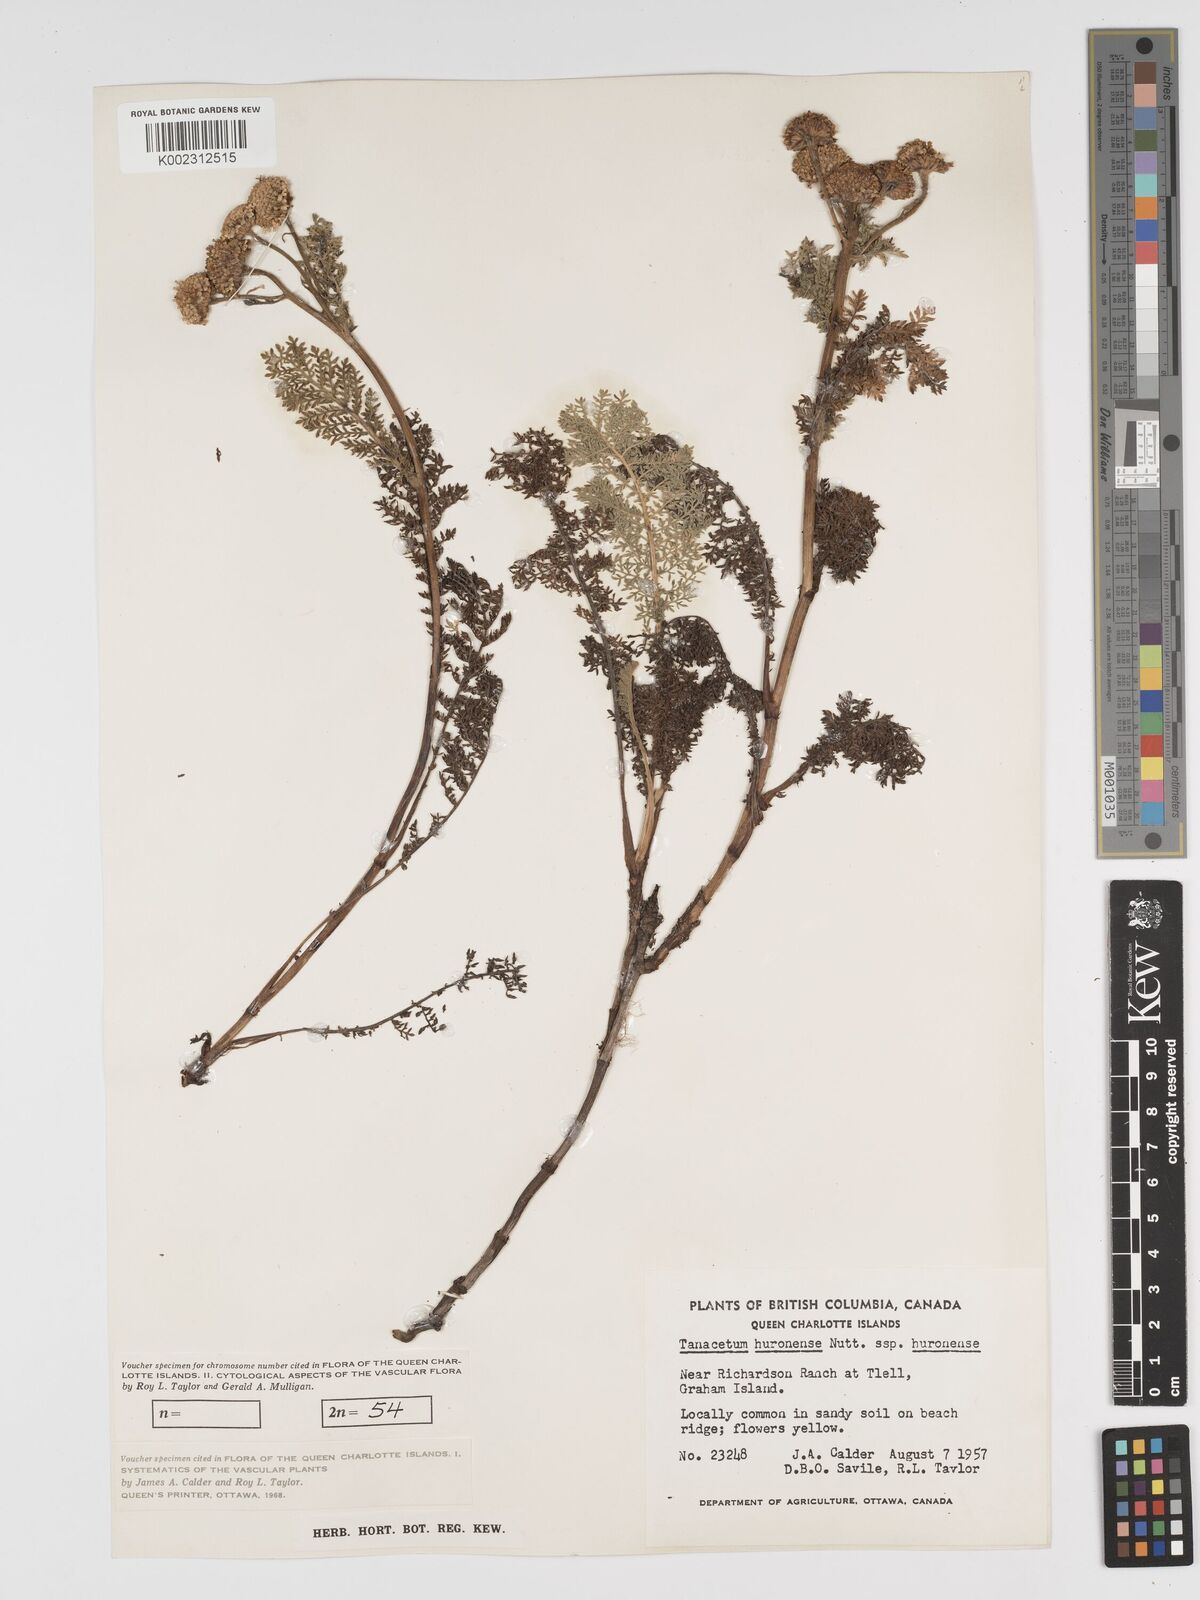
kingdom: Plantae
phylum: Tracheophyta
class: Magnoliopsida
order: Asterales
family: Asteraceae
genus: Tanacetum
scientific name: Tanacetum bipinnatum
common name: Dwarf tansy
